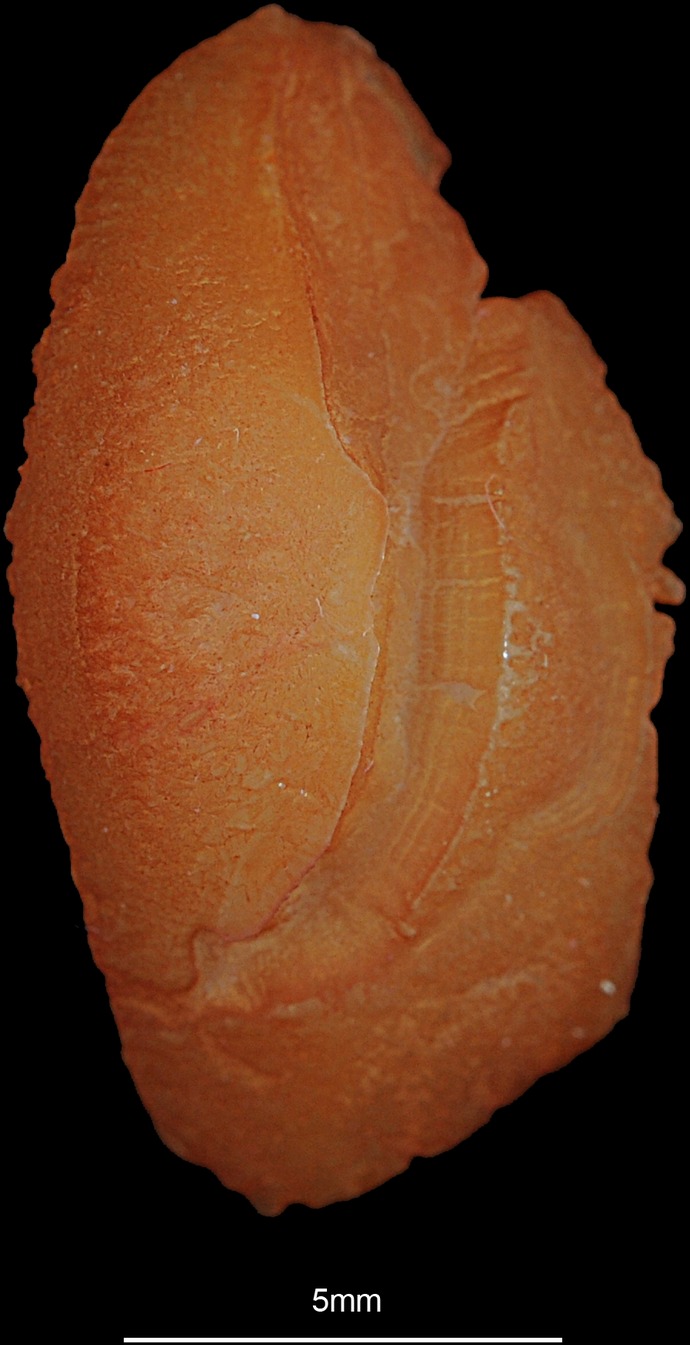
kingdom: Animalia
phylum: Chordata
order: Perciformes
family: Sparidae
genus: Acanthopagrus
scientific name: Acanthopagrus berda
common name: Picnic seabream
